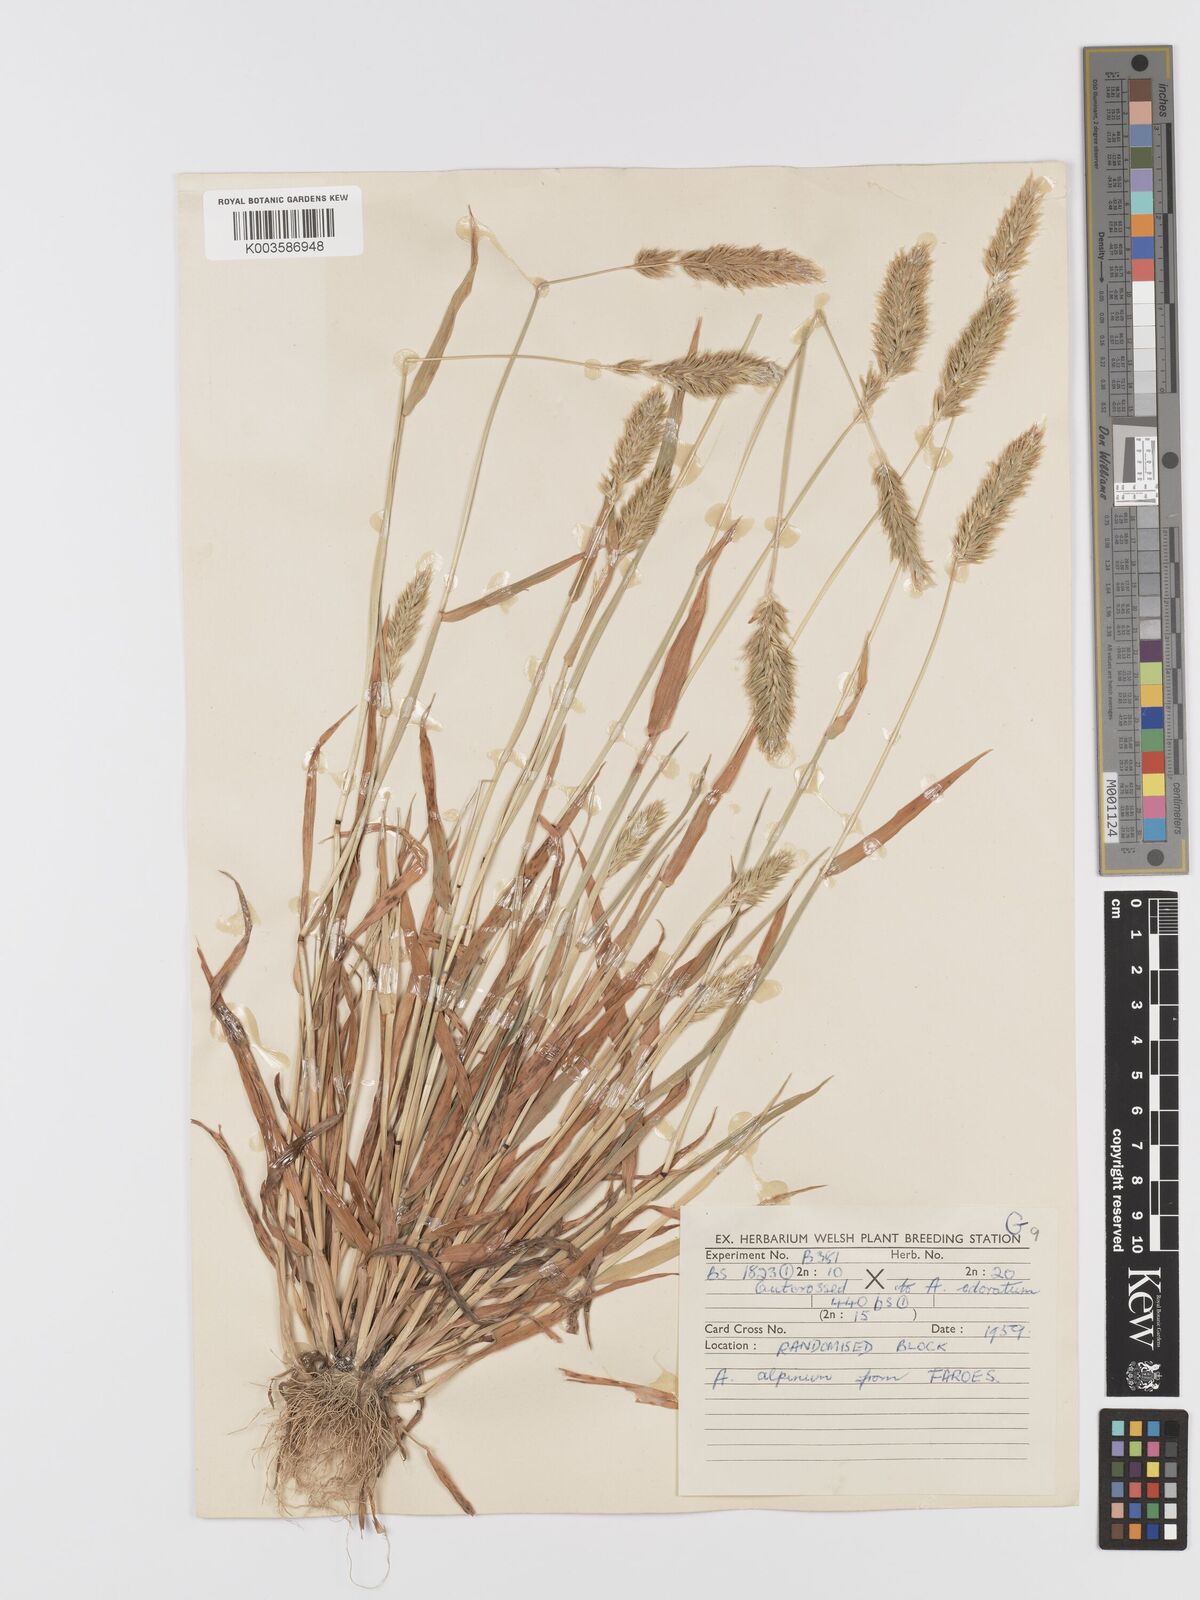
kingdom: Plantae
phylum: Tracheophyta
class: Liliopsida
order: Poales
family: Poaceae
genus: Anthoxanthum
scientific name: Anthoxanthum nipponicum
